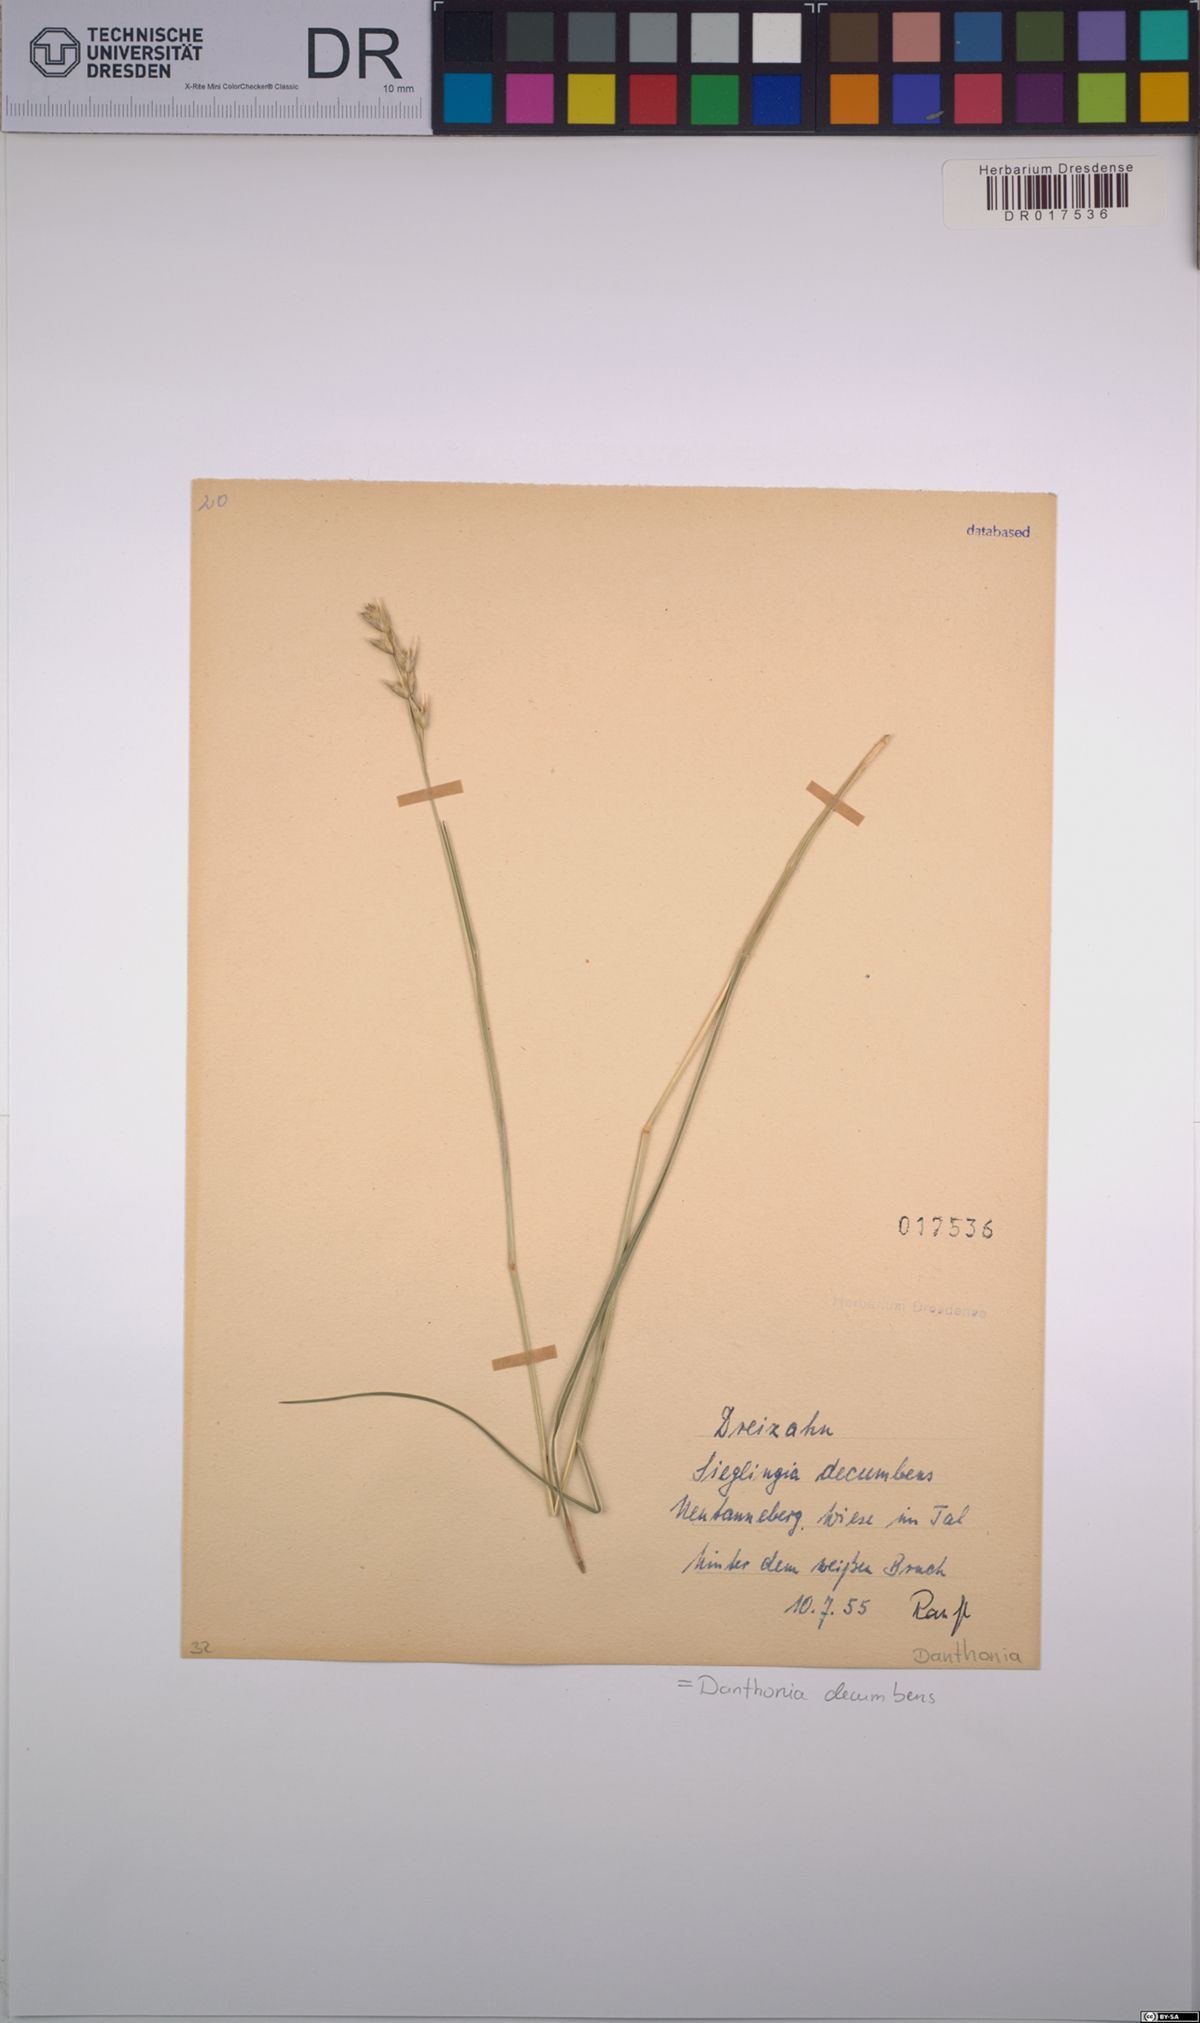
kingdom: Plantae
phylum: Tracheophyta
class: Liliopsida
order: Poales
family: Poaceae
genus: Danthonia
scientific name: Danthonia decumbens
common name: Common heathgrass
